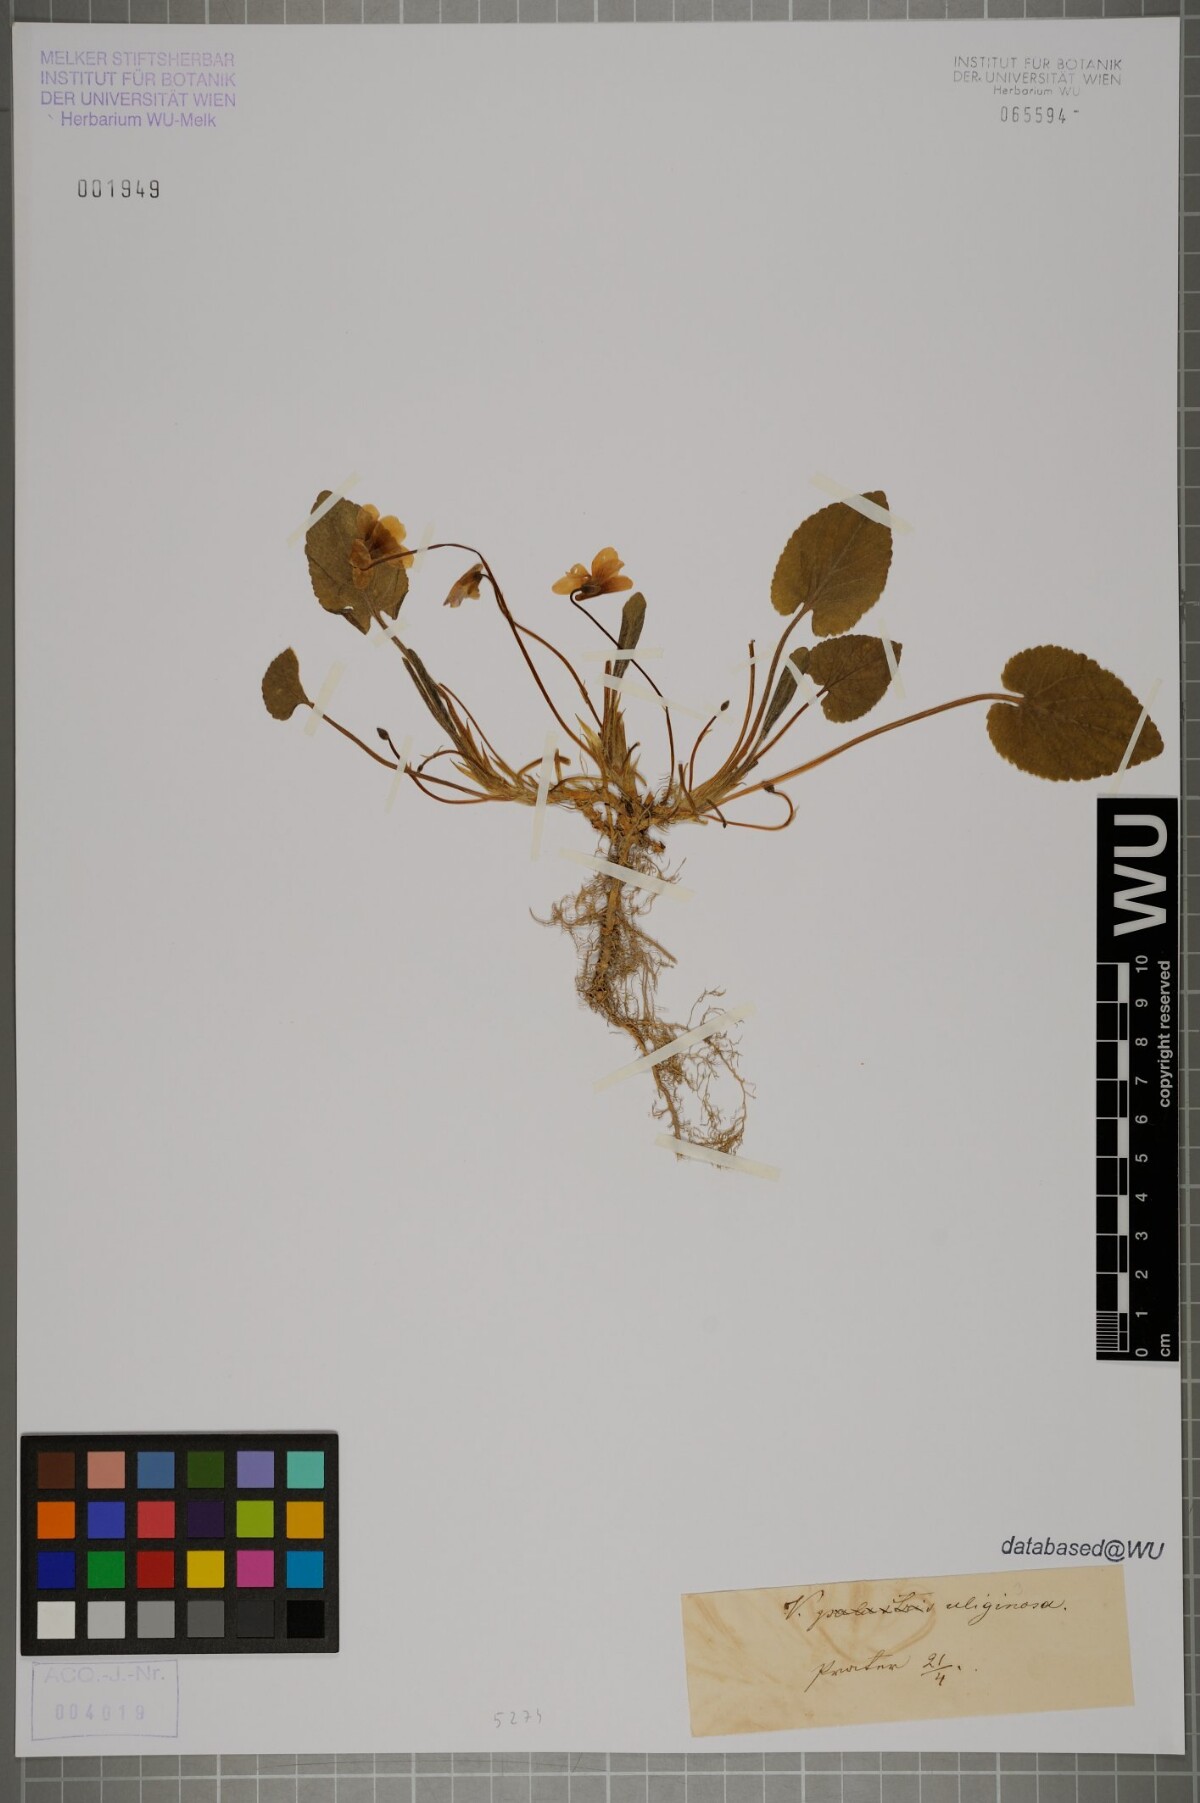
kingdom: Plantae
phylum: Tracheophyta
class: Magnoliopsida
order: Malpighiales
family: Violaceae
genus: Viola
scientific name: Viola
